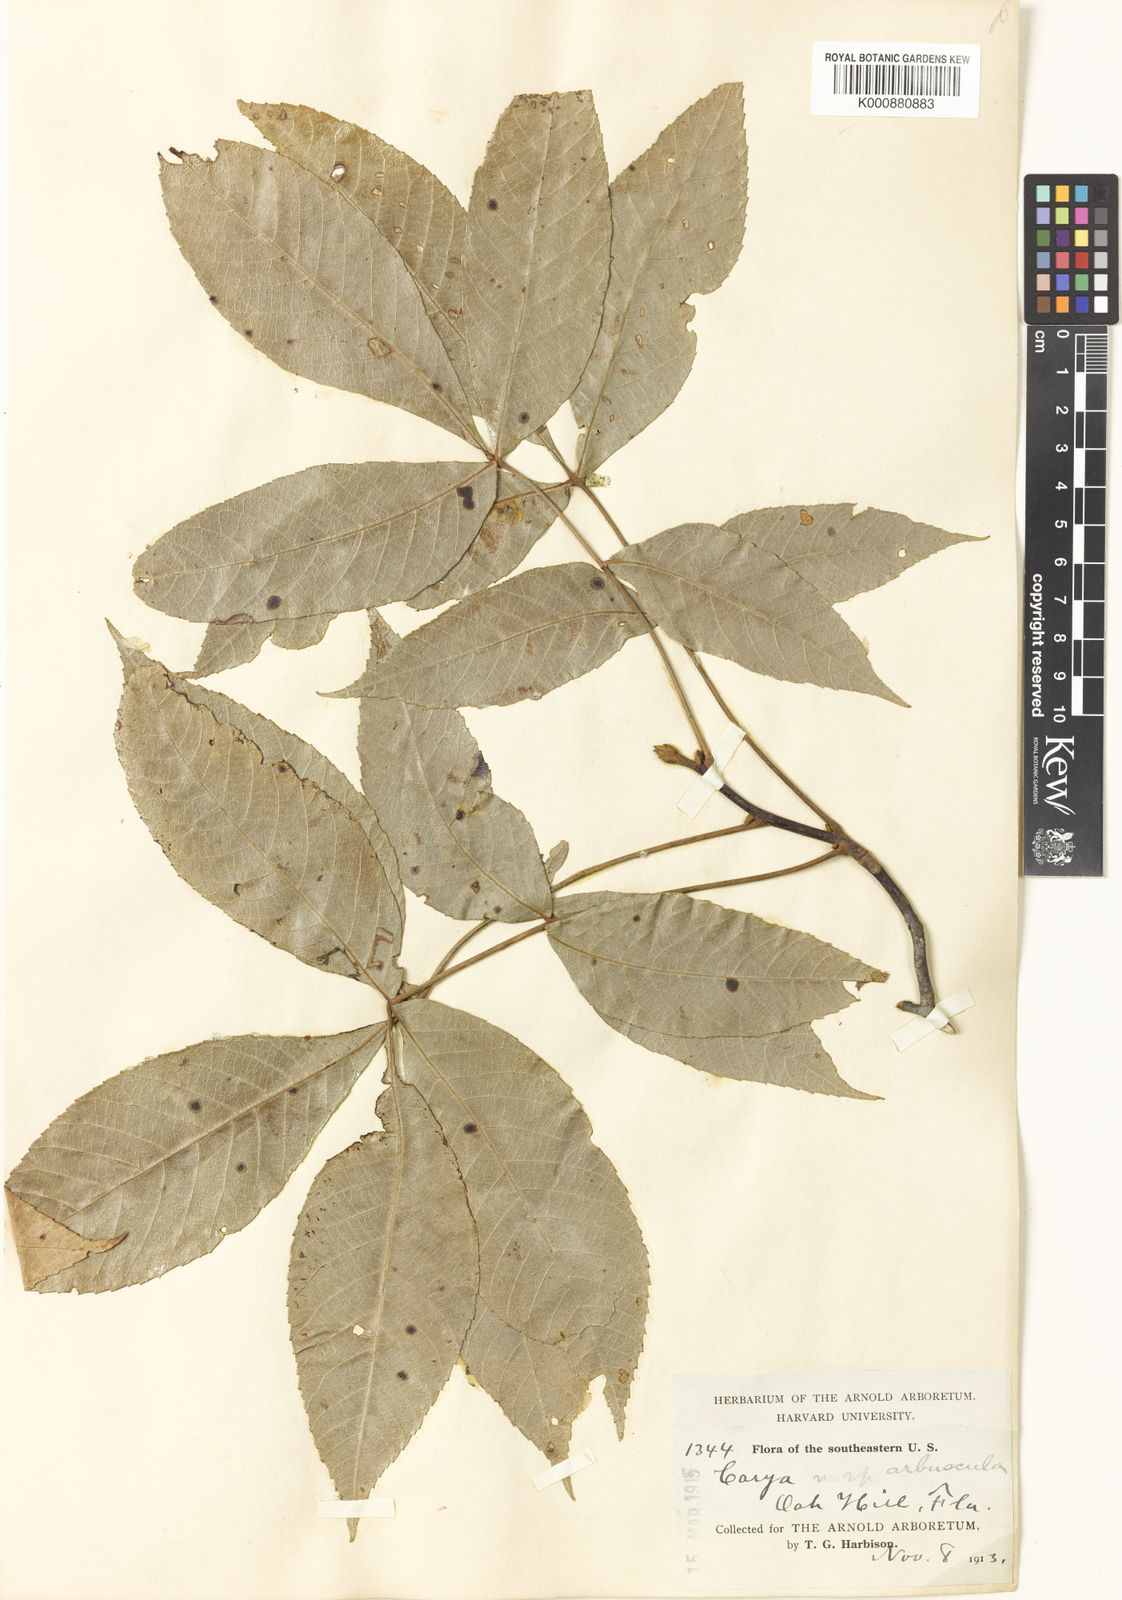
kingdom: Plantae
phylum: Tracheophyta
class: Magnoliopsida
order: Fagales
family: Juglandaceae
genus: Carya
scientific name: Carya
